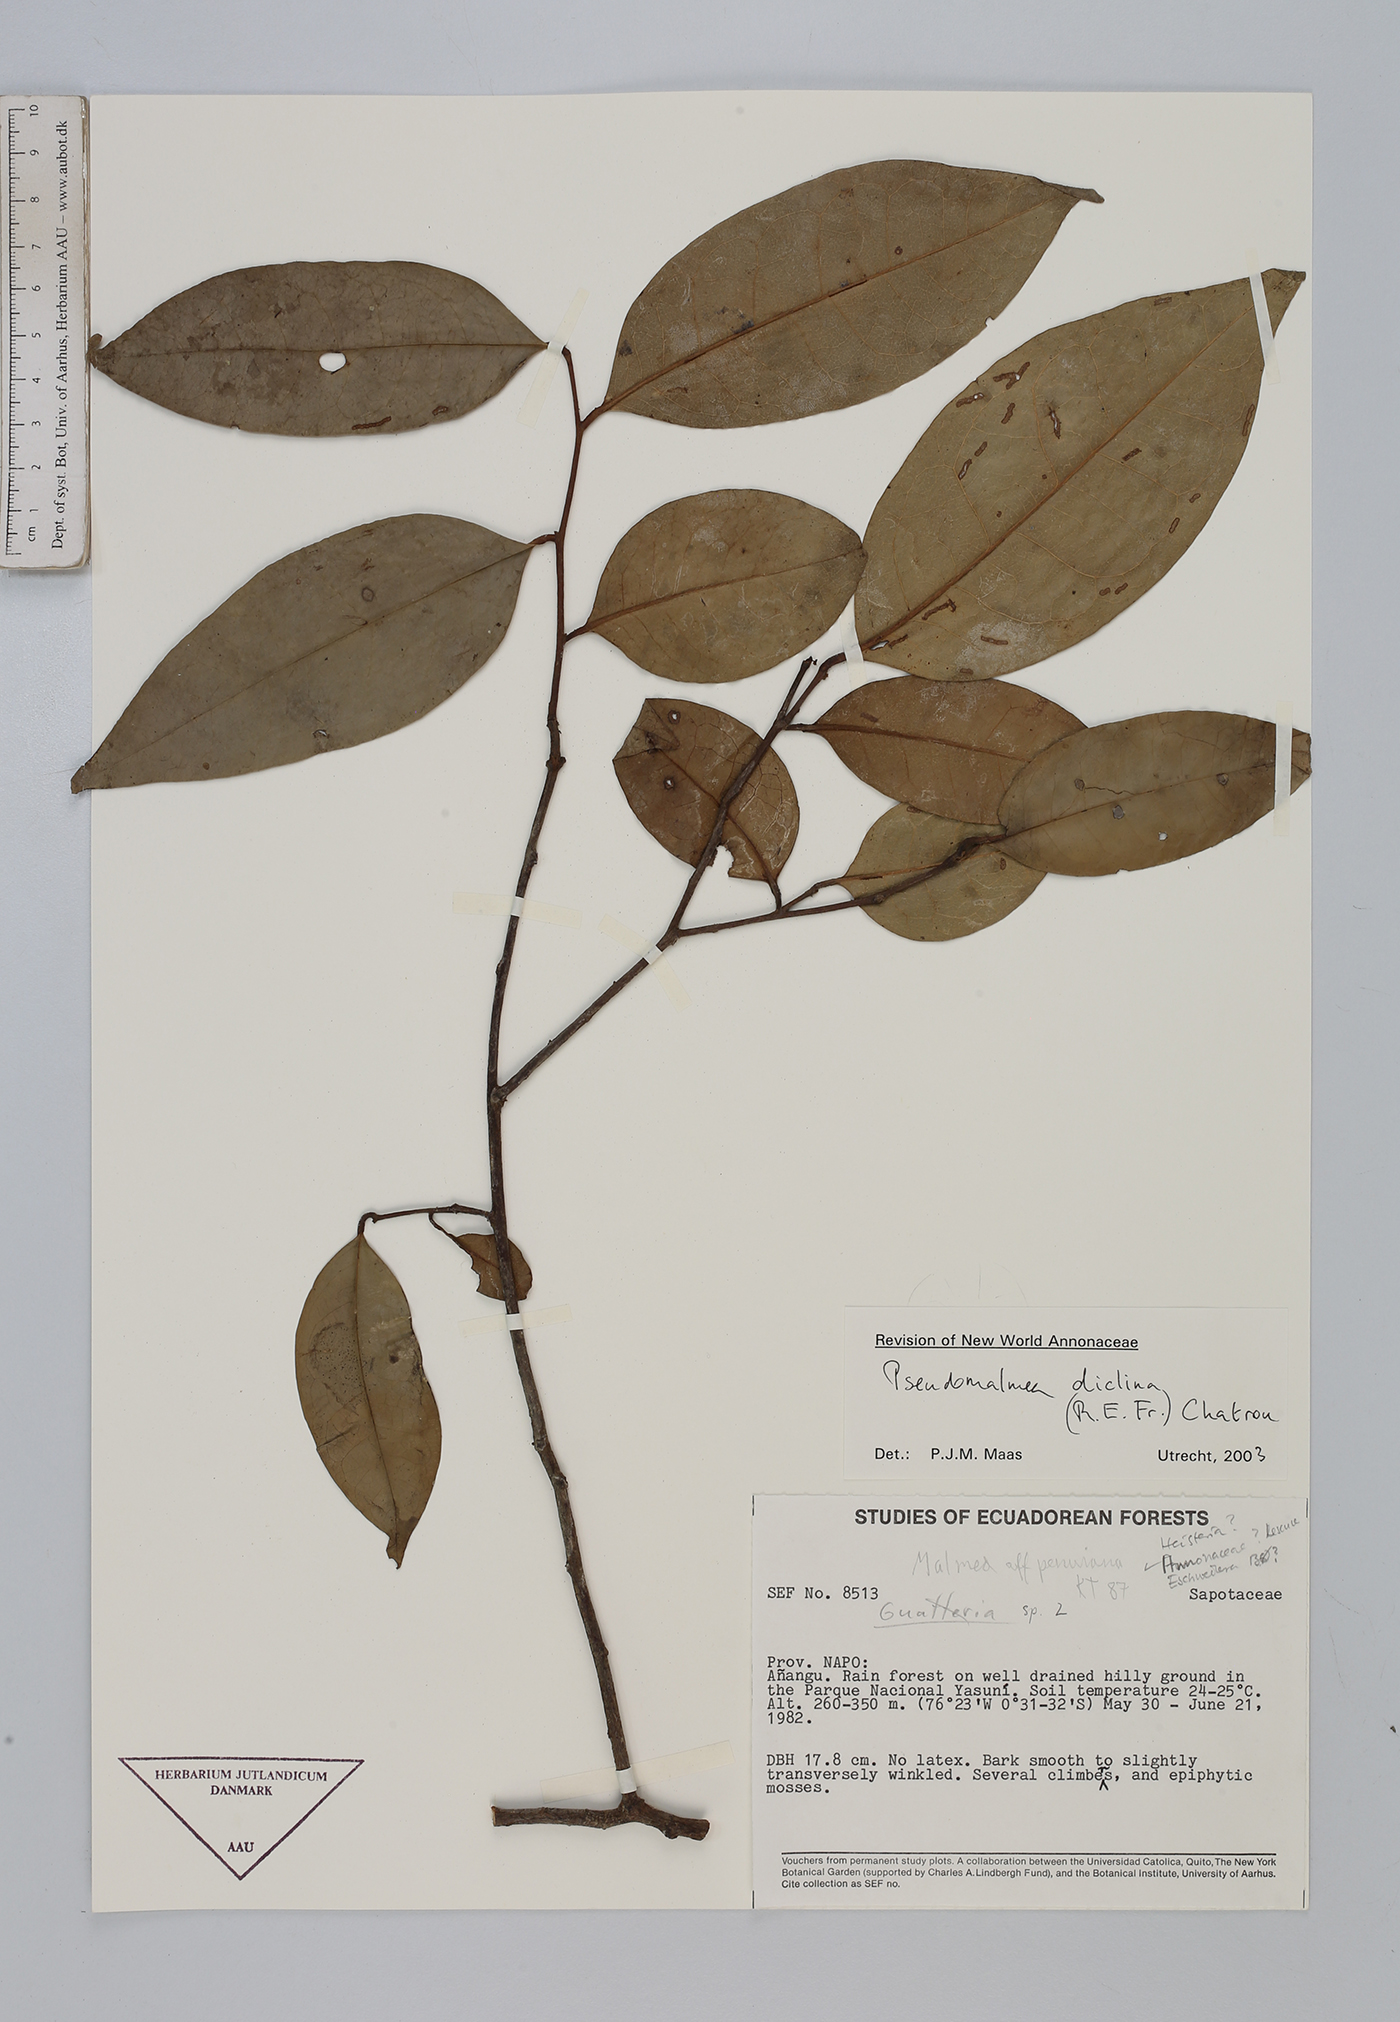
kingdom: Plantae
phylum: Tracheophyta
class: Magnoliopsida
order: Magnoliales
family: Annonaceae
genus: Pseudomalmea
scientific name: Pseudomalmea diclina
